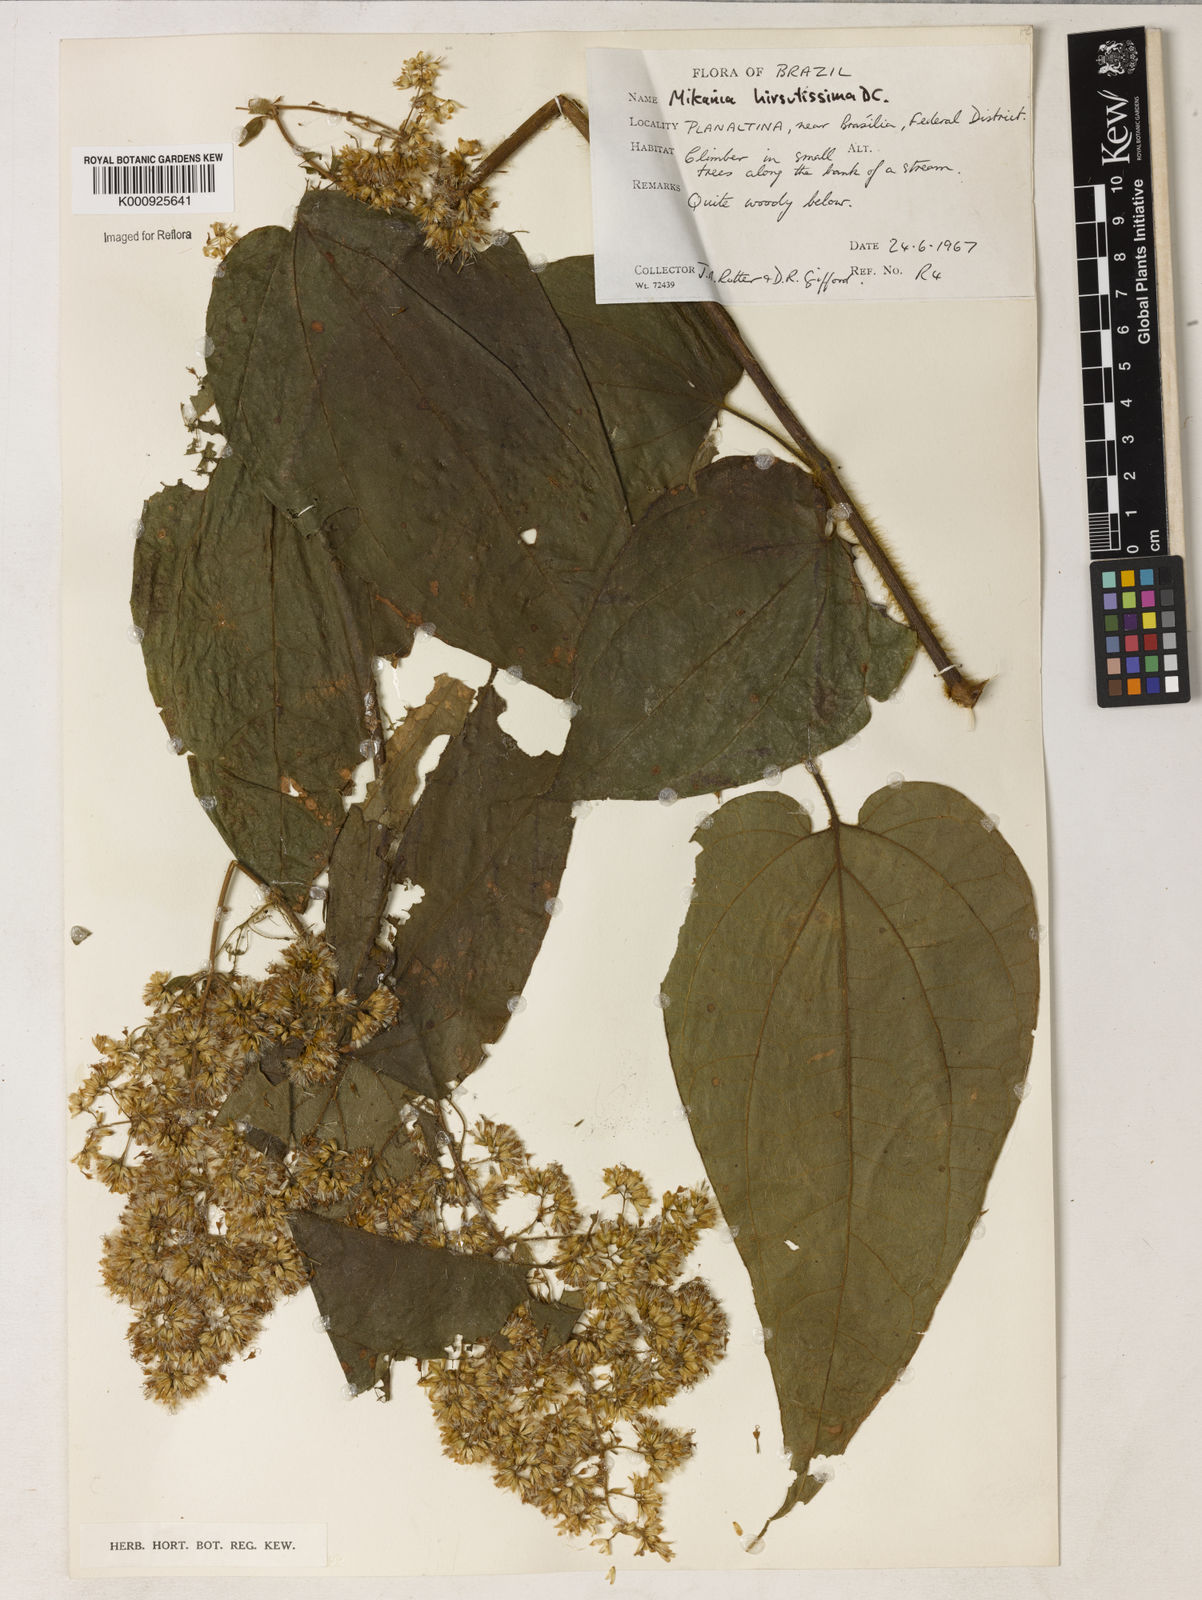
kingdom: Plantae
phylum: Tracheophyta
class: Magnoliopsida
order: Asterales
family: Asteraceae
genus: Mikania
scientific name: Mikania banisteriae
